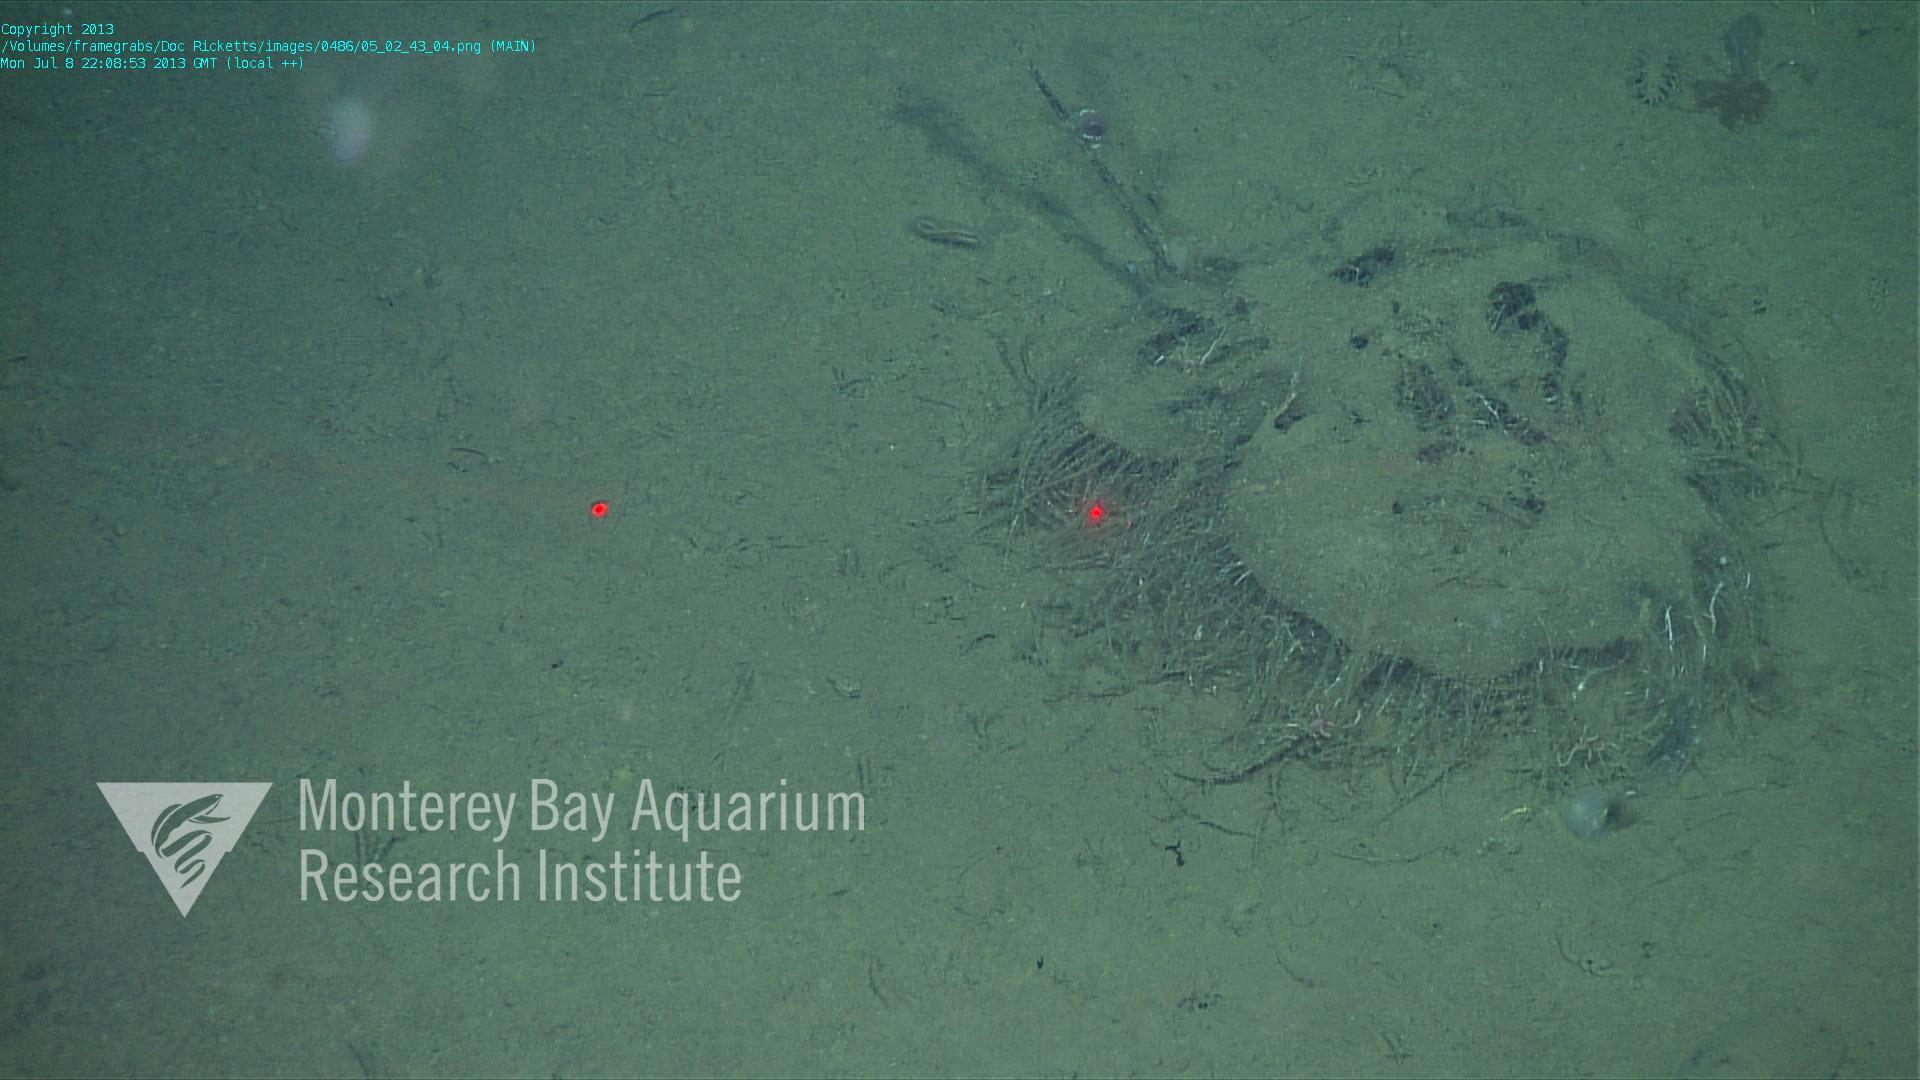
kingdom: Animalia
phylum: Porifera
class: Hexactinellida
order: Lyssacinosida
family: Rossellidae
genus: Bathydorus
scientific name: Bathydorus laniger
